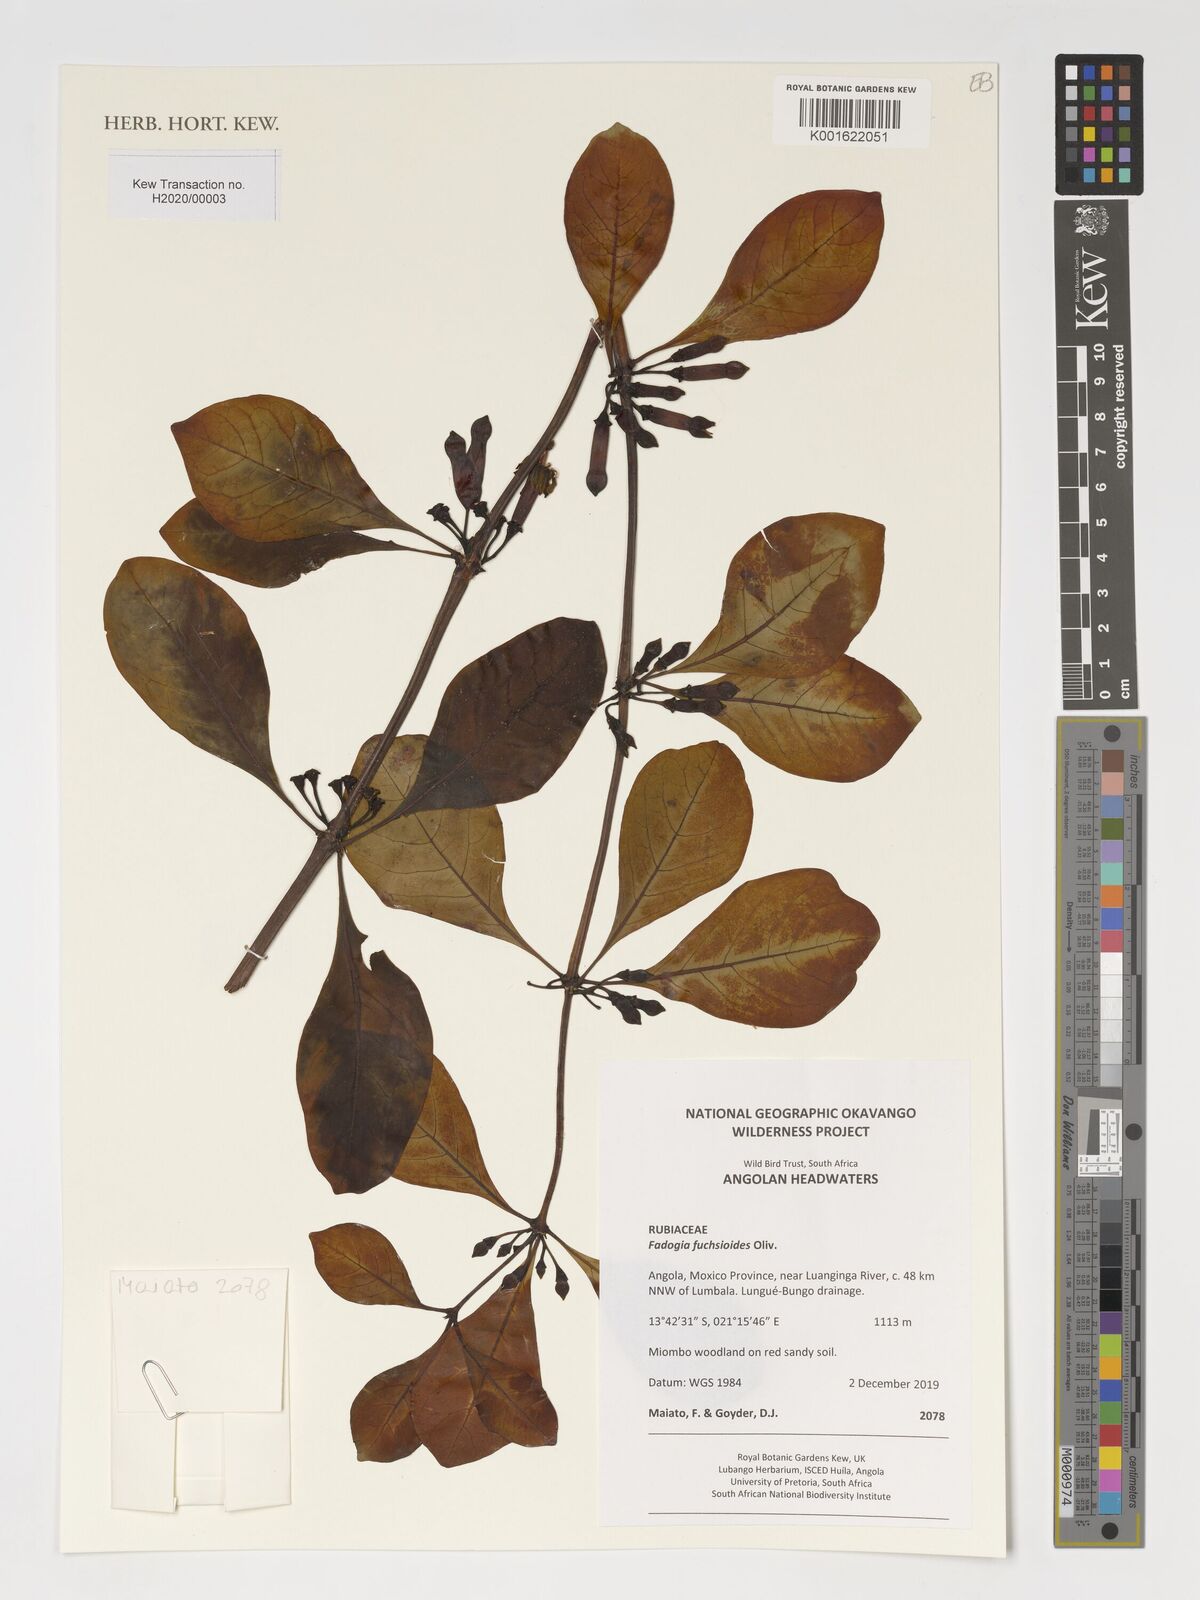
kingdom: Plantae
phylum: Tracheophyta
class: Magnoliopsida
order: Gentianales
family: Rubiaceae
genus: Fadogia
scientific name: Fadogia fuchsioides
